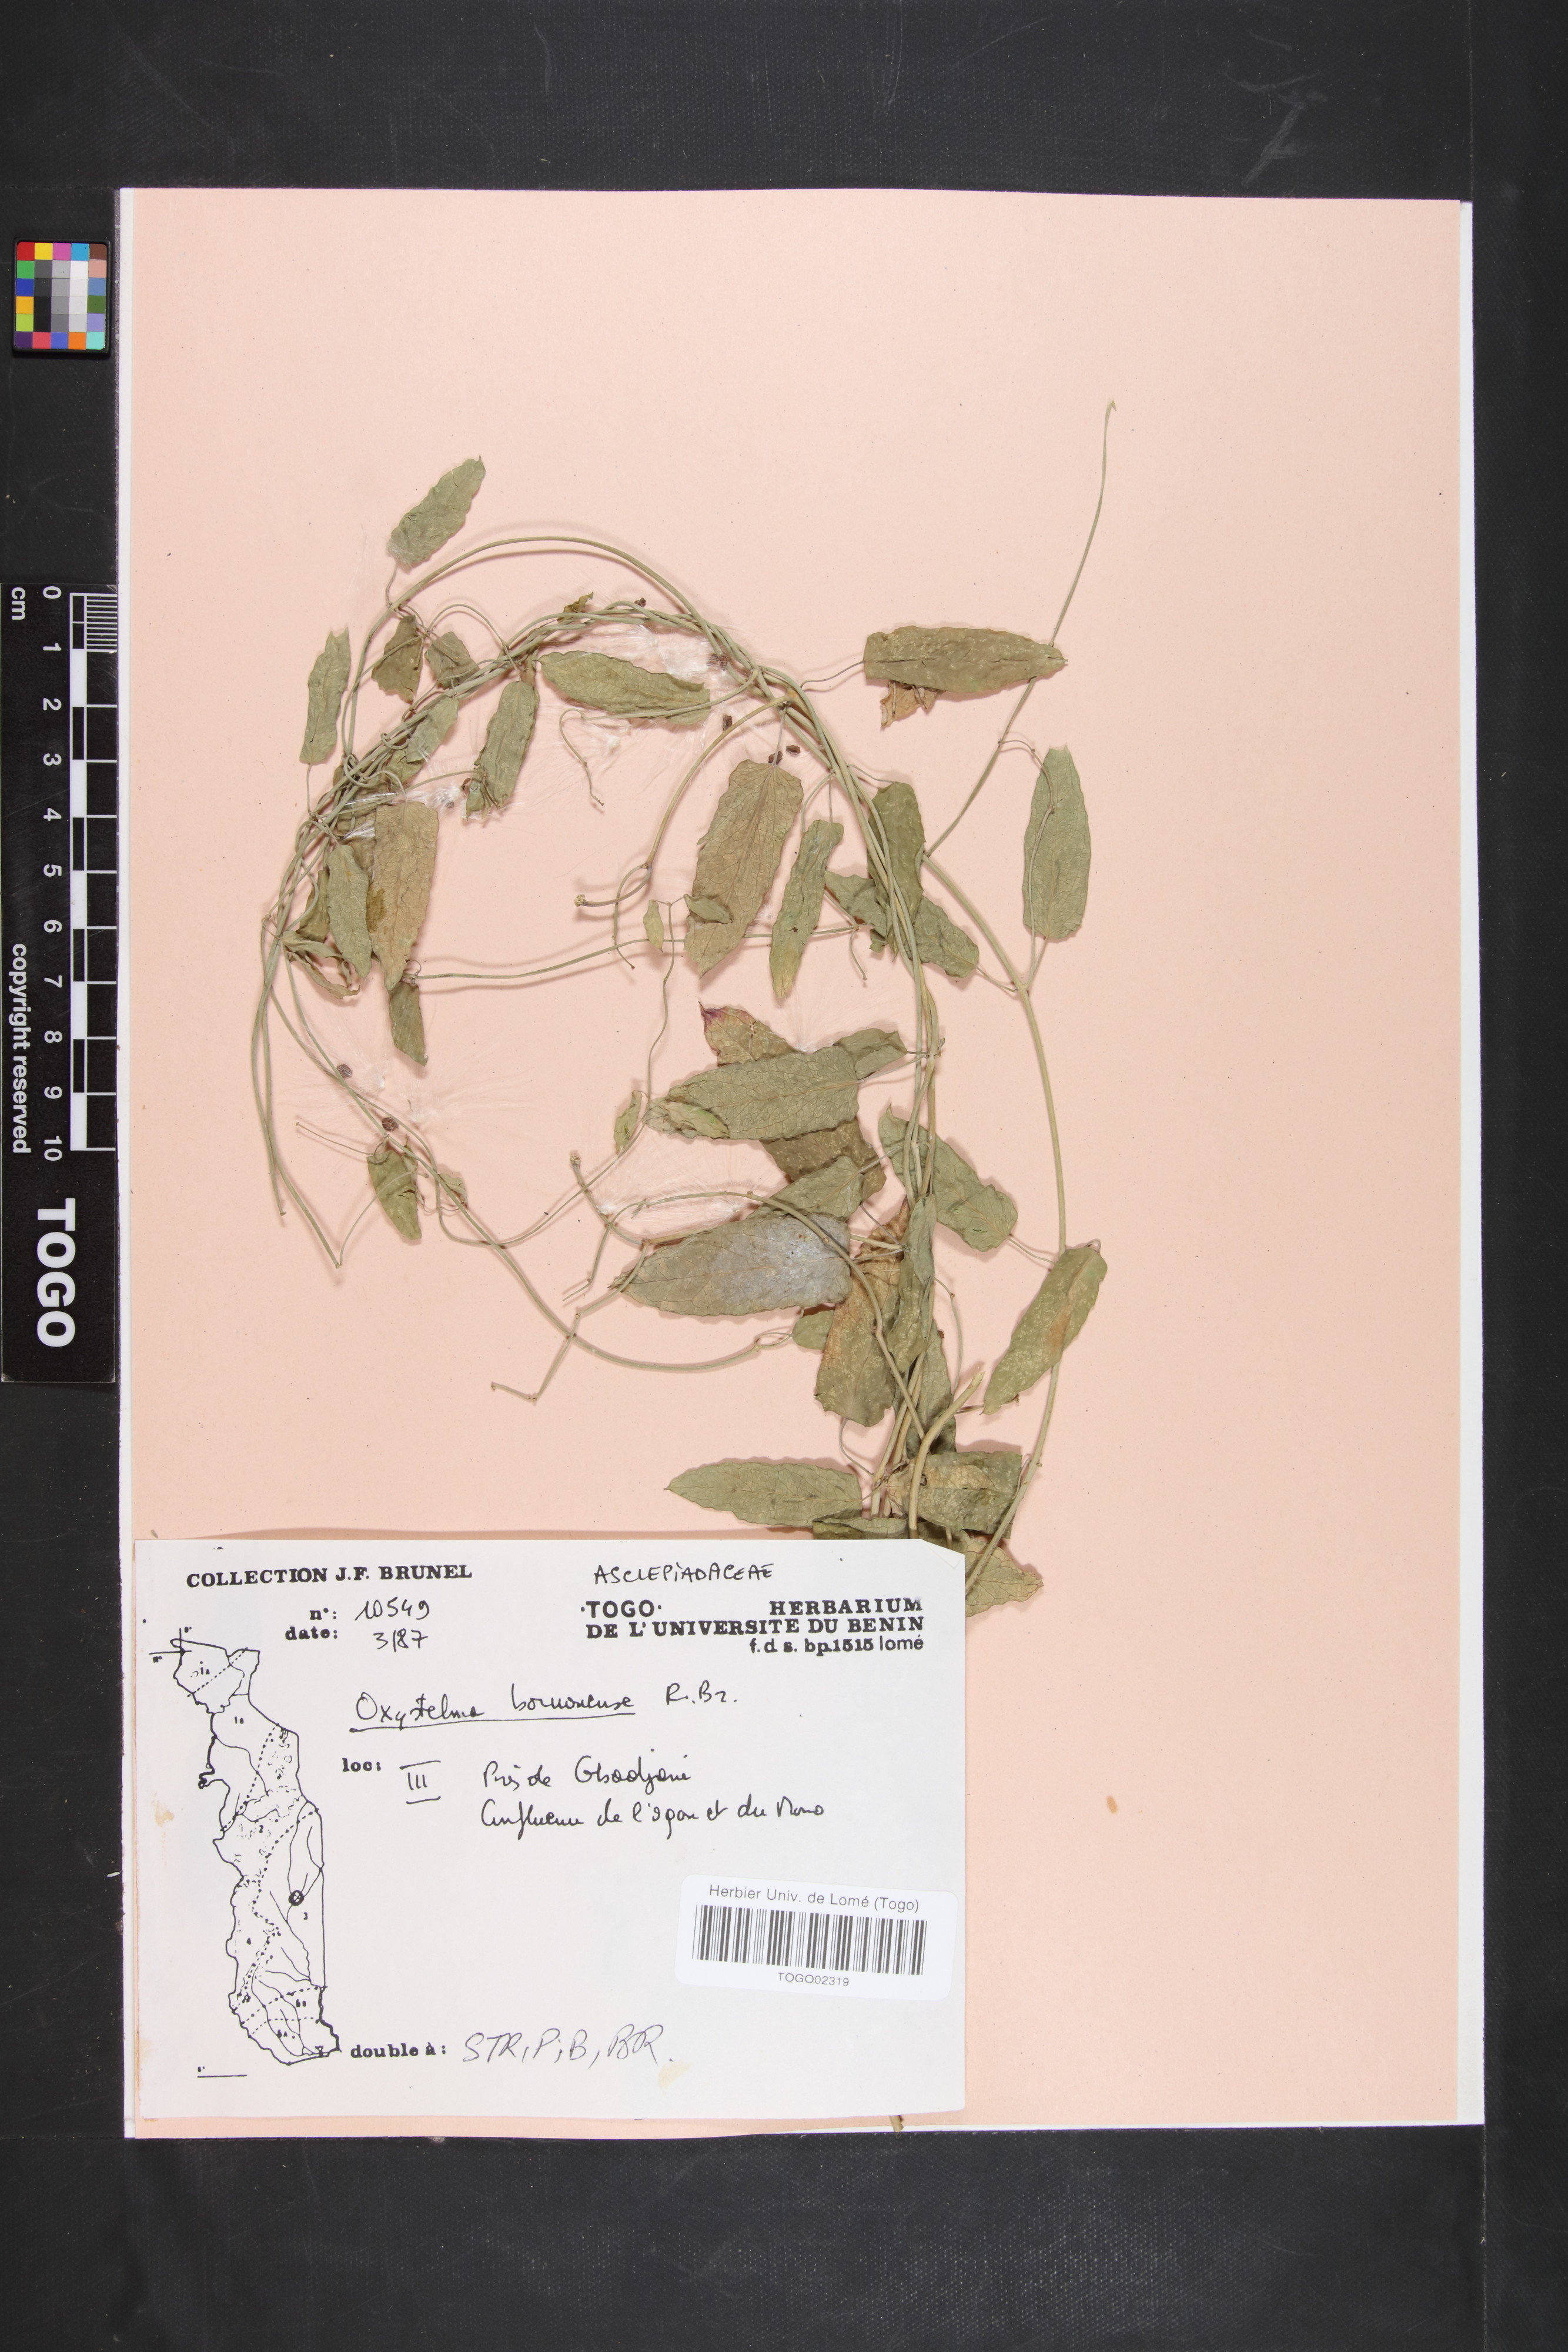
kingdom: Plantae
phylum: Tracheophyta
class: Magnoliopsida
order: Gentianales
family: Apocynaceae
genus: Oxystelma
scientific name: Oxystelma bornouense
